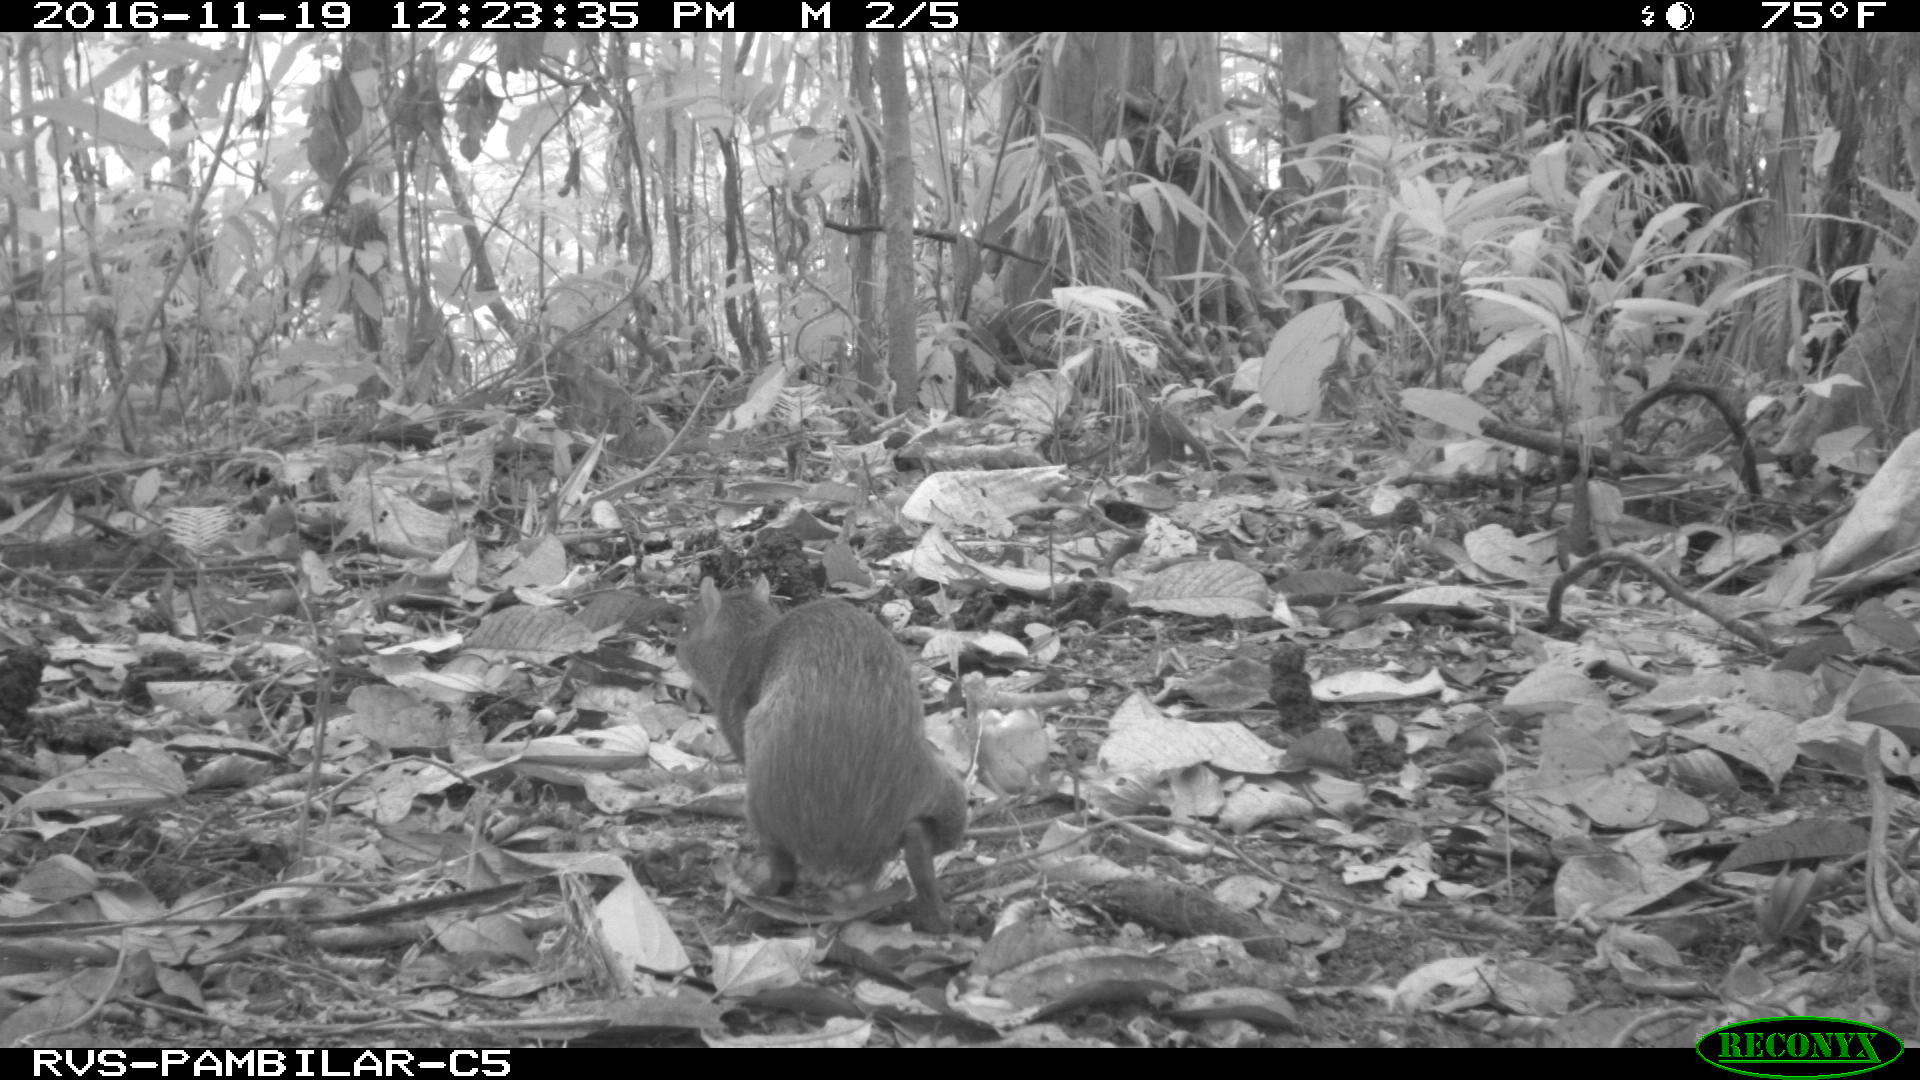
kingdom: Animalia
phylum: Chordata
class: Mammalia
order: Rodentia
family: Dasyproctidae
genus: Dasyprocta
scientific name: Dasyprocta punctata
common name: Central american agouti
